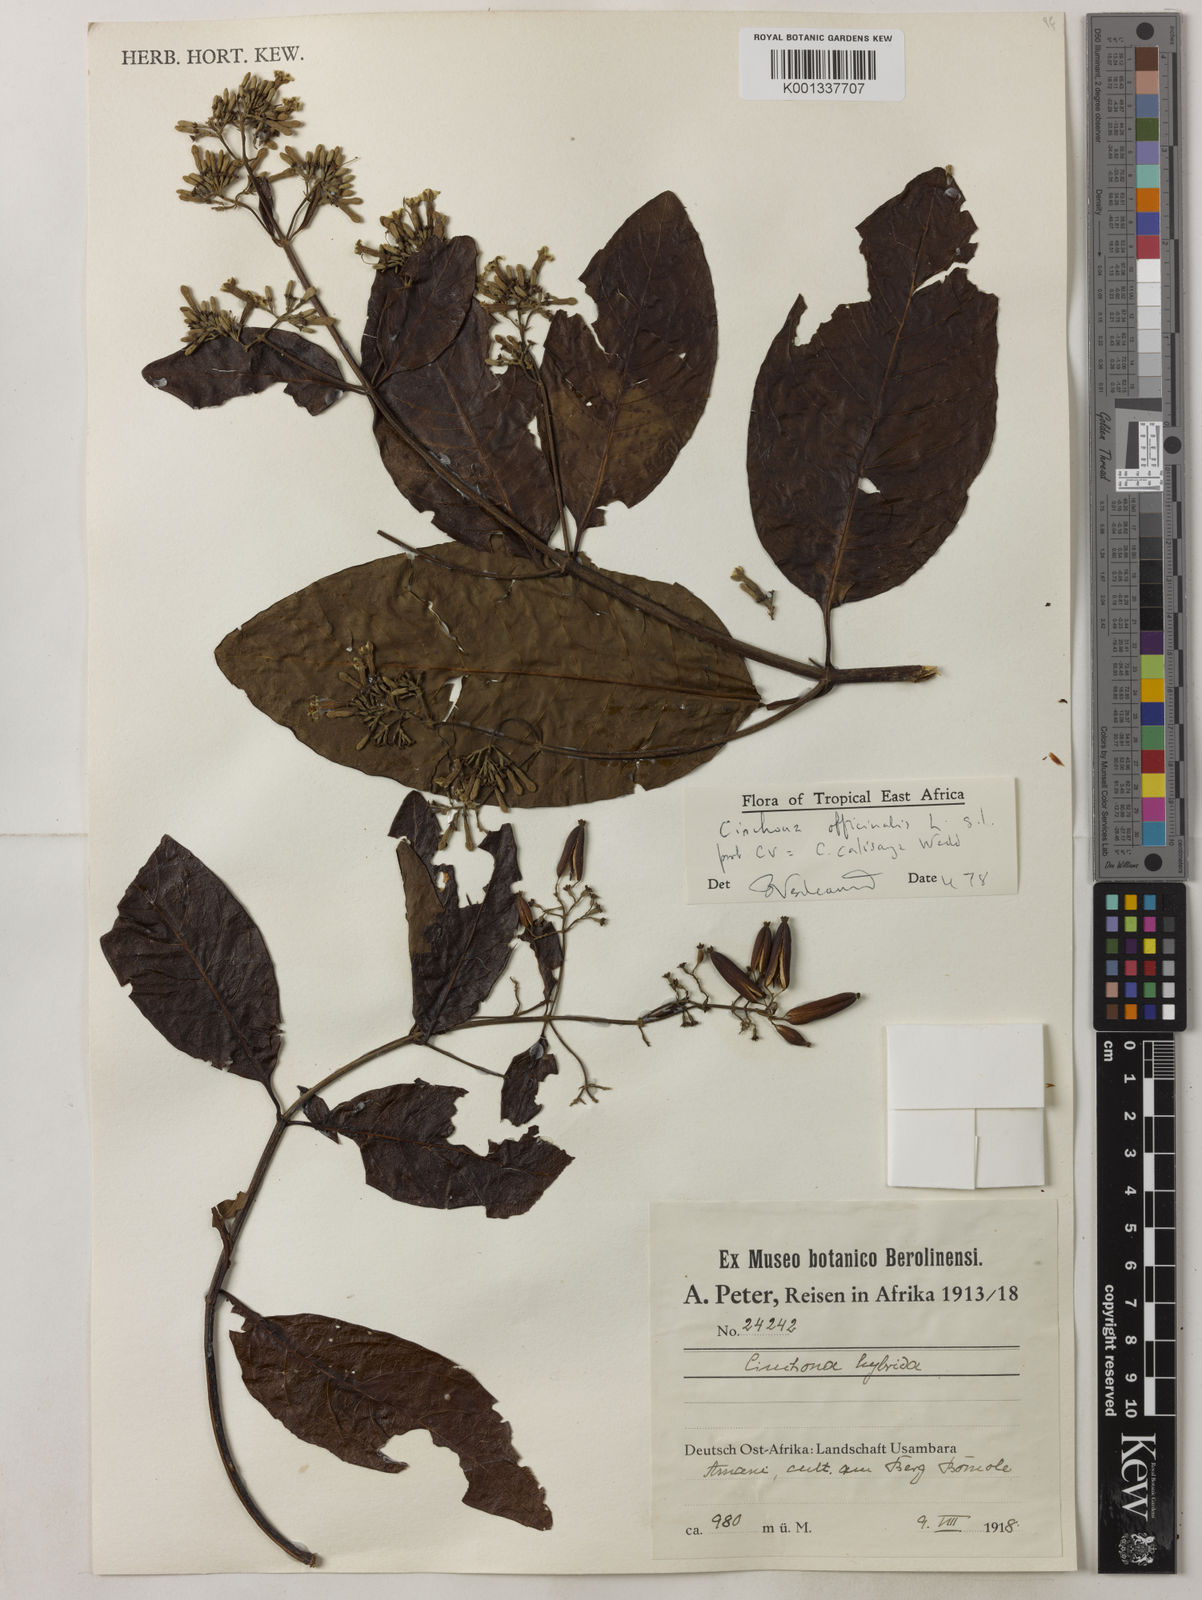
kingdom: Plantae
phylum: Tracheophyta
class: Magnoliopsida
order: Gentianales
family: Rubiaceae
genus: Cinchona
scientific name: Cinchona calisaya
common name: Ledgerbark
